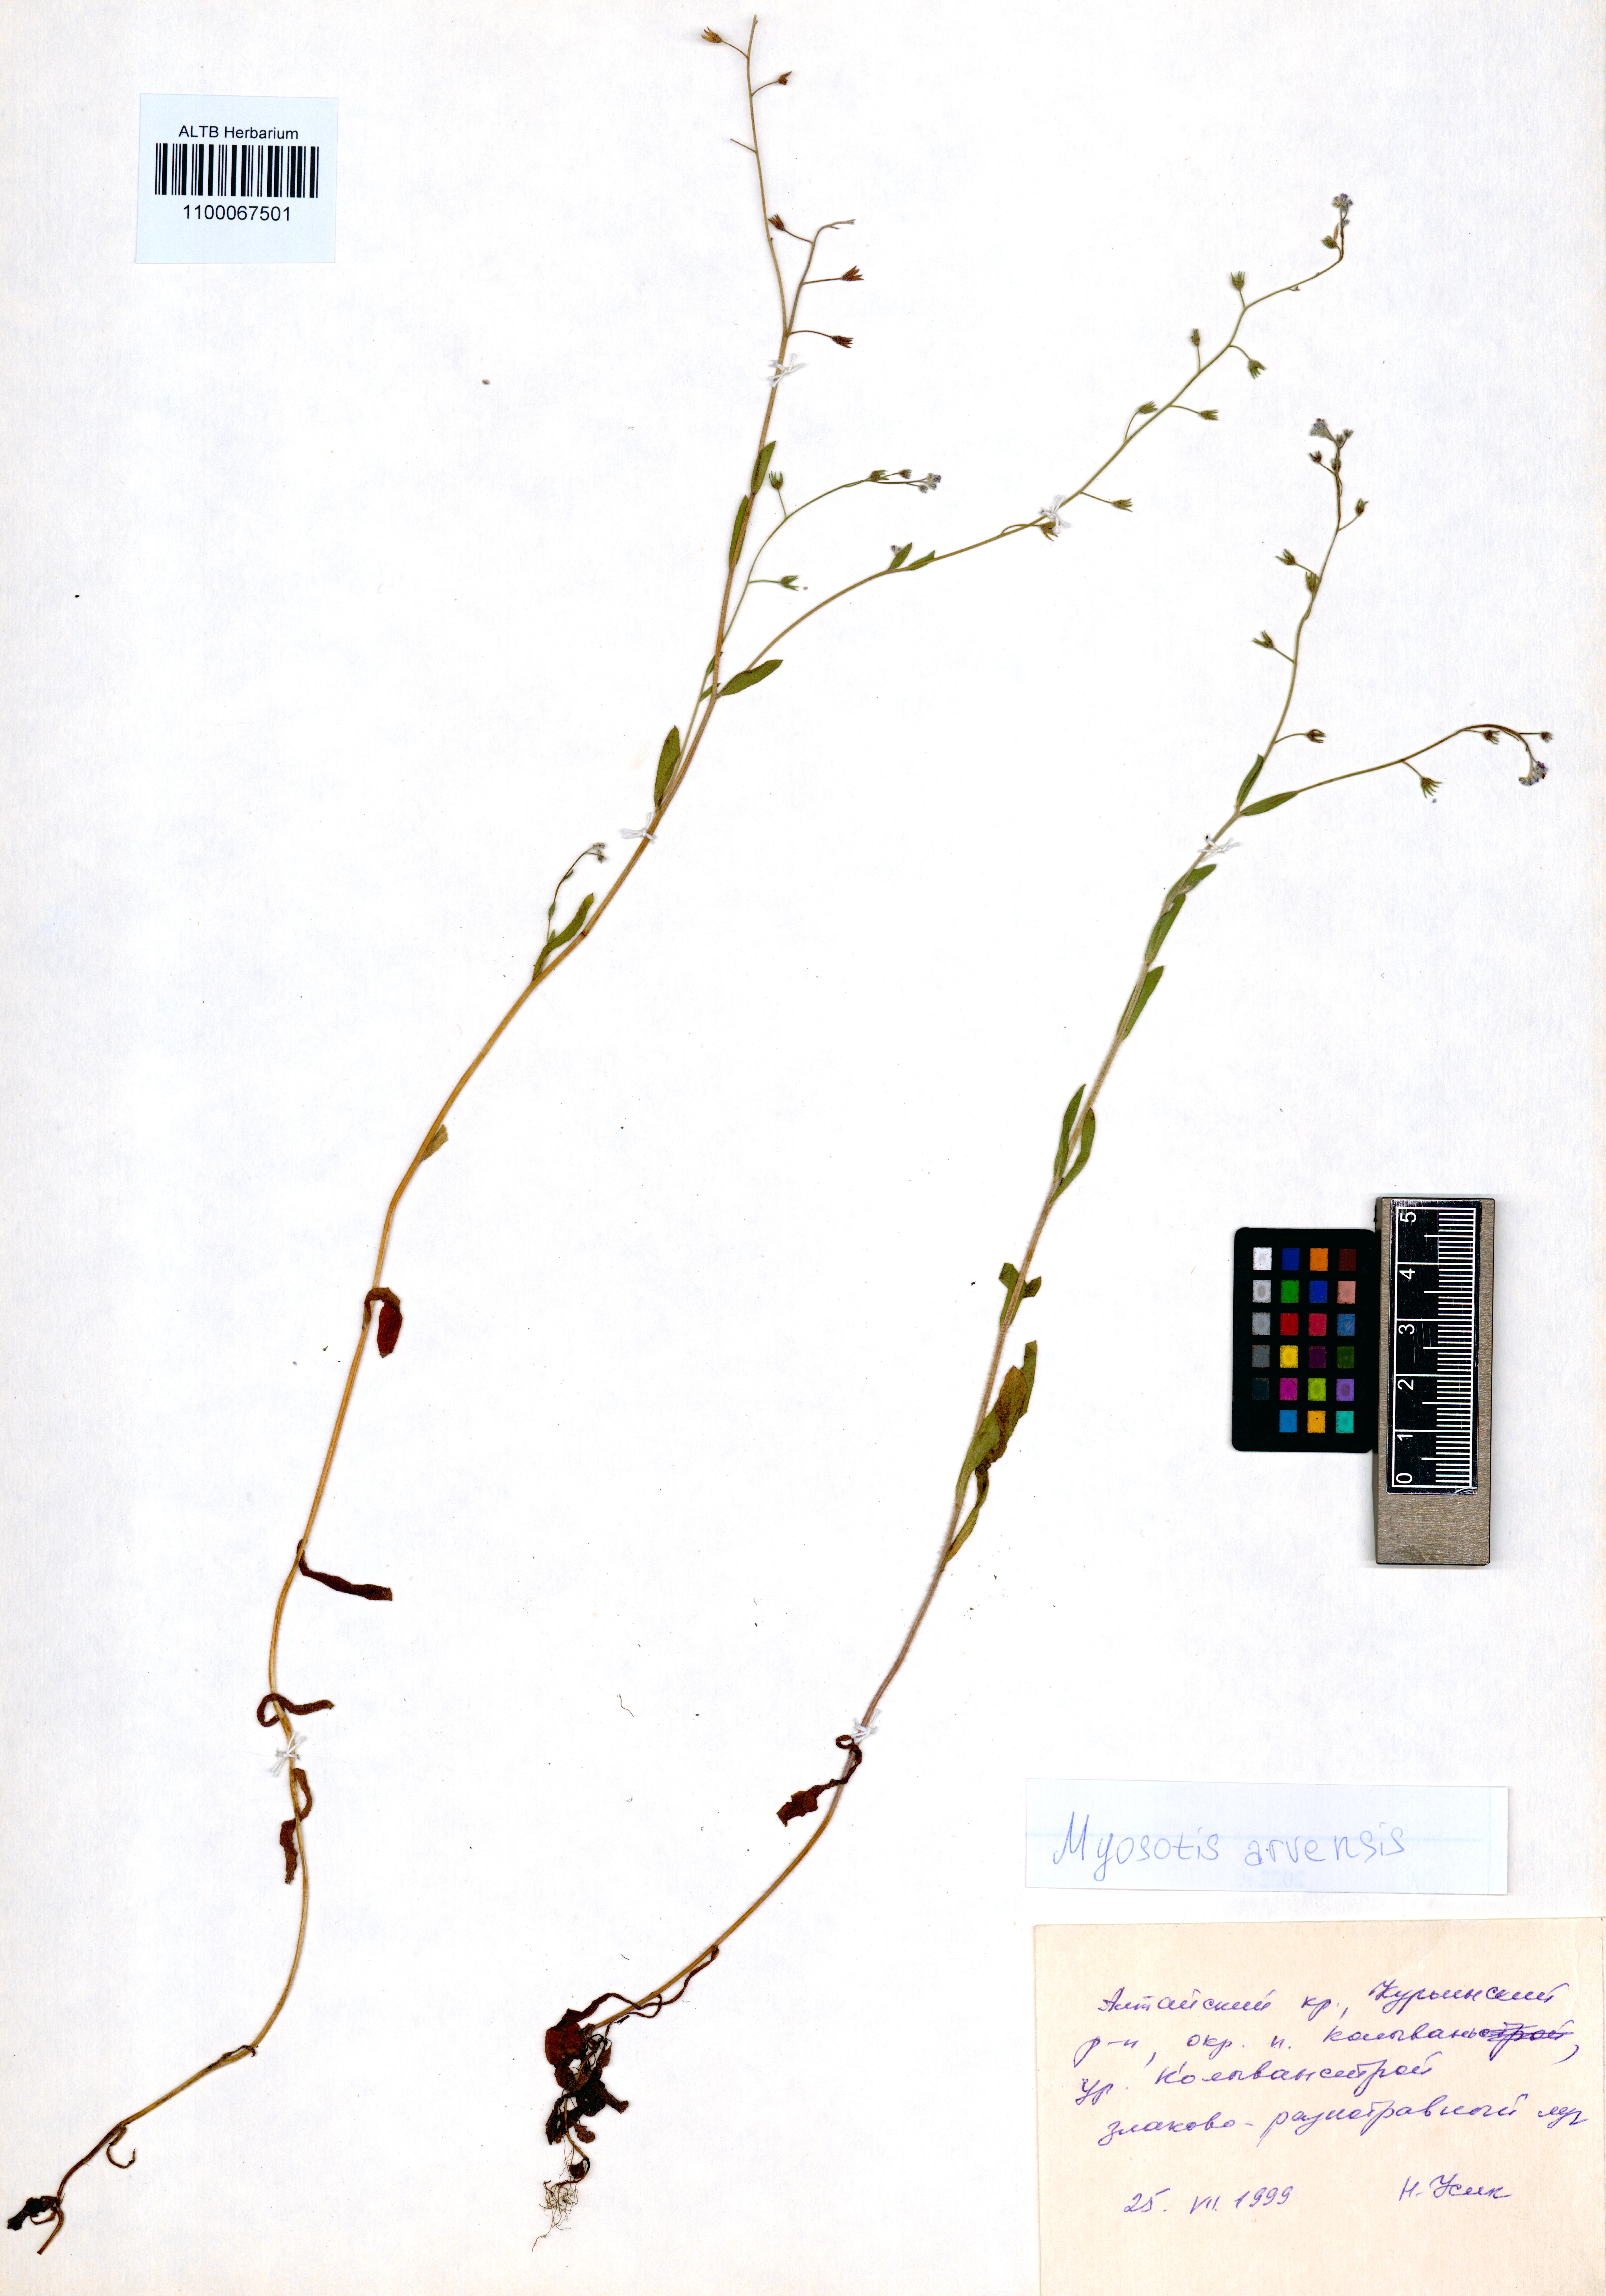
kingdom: Plantae
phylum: Tracheophyta
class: Magnoliopsida
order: Boraginales
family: Boraginaceae
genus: Myosotis
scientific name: Myosotis arvensis
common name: Field forget-me-not
